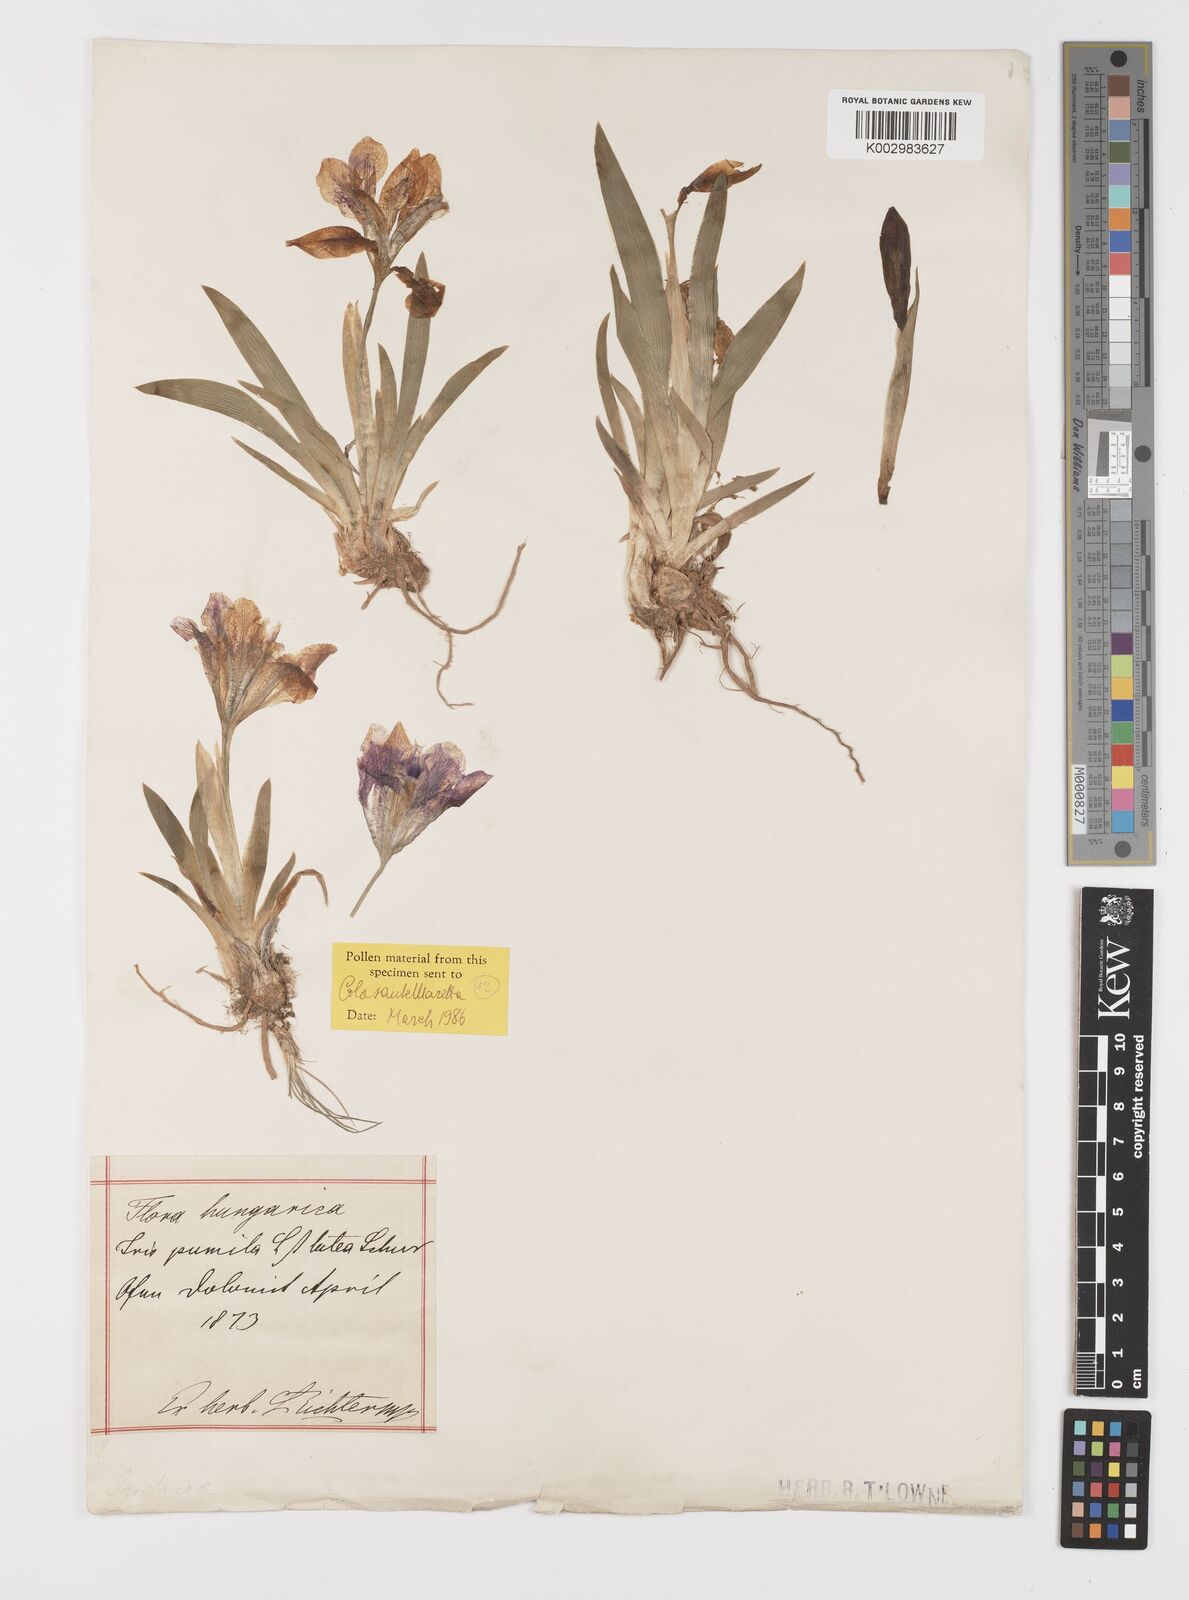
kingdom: Plantae
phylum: Tracheophyta
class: Liliopsida
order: Asparagales
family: Iridaceae
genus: Iris
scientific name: Iris pumila
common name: Dwarf iris
